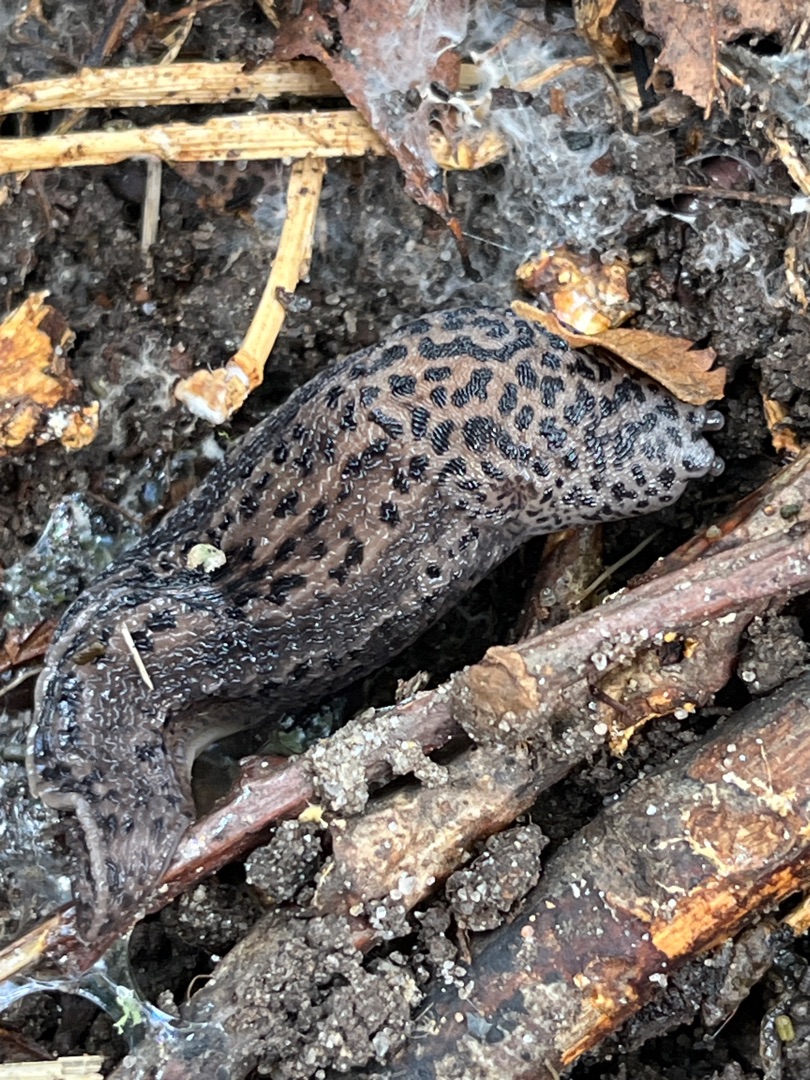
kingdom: Animalia
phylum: Mollusca
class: Gastropoda
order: Stylommatophora
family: Limacidae
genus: Limax
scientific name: Limax maximus
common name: Pantersnegl
